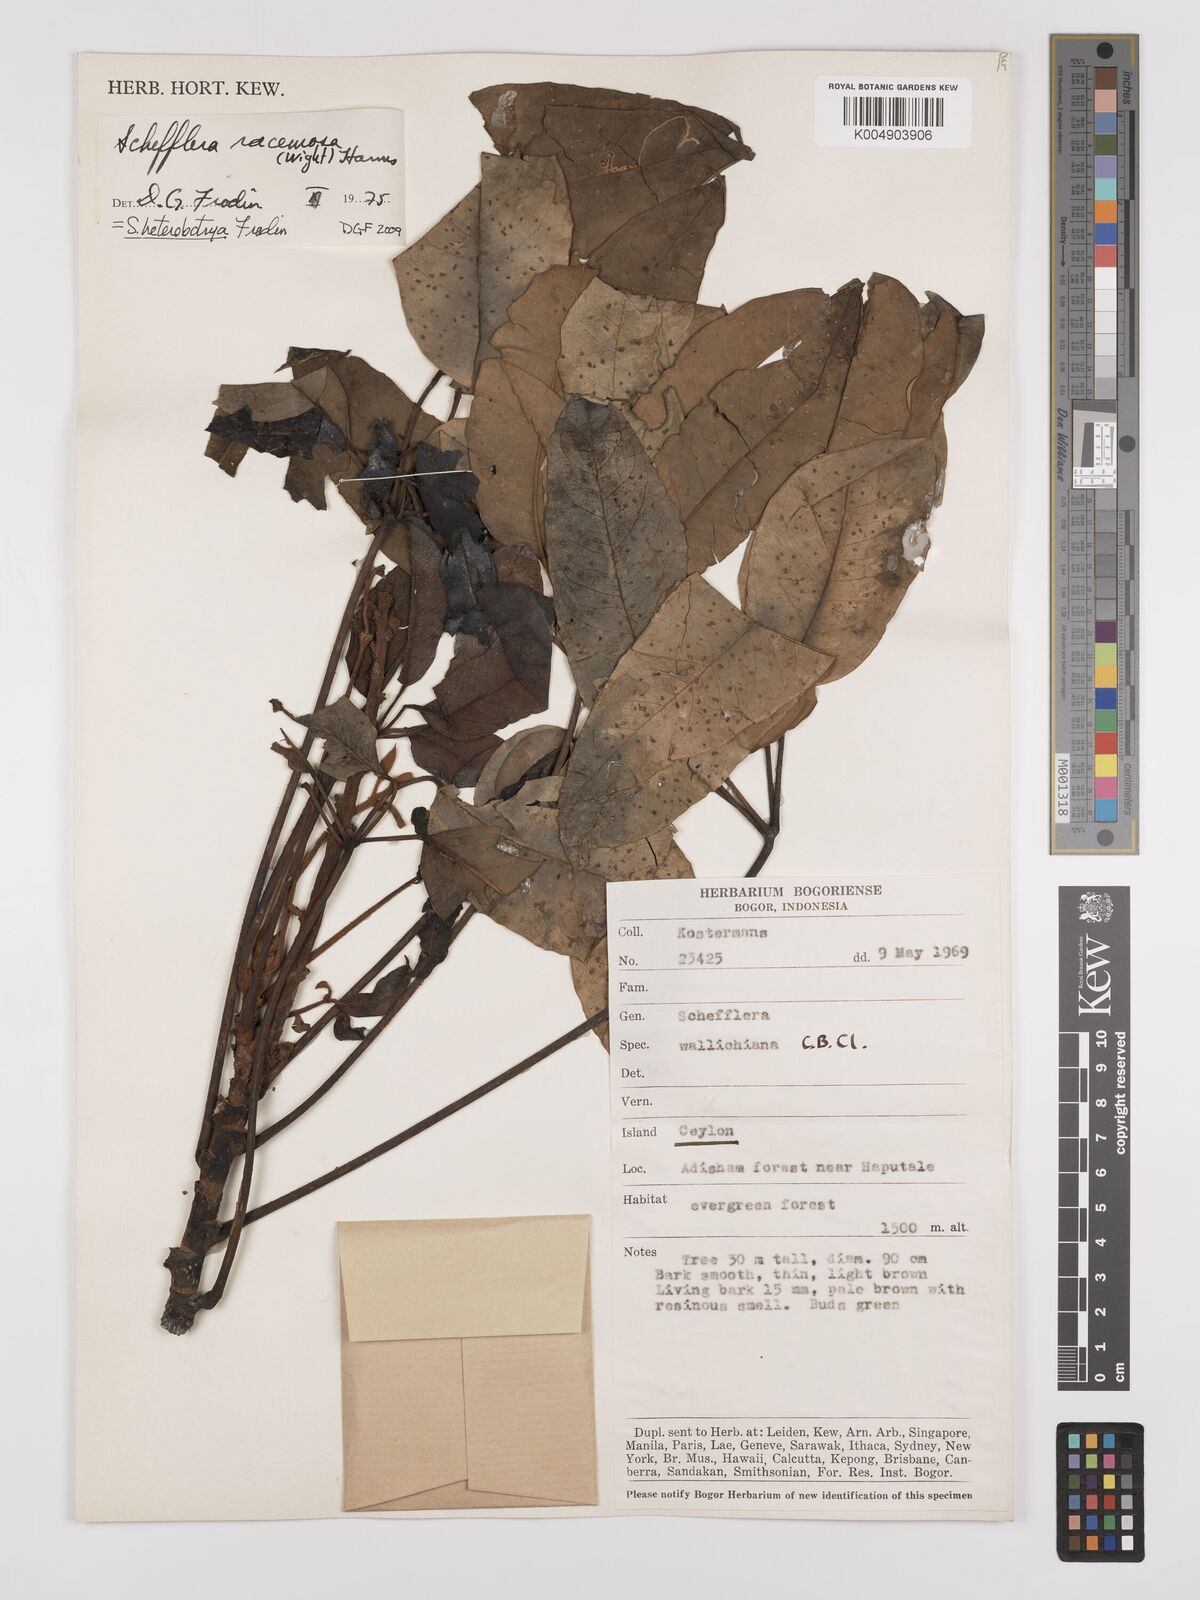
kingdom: Plantae
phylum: Tracheophyta
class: Magnoliopsida
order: Apiales
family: Araliaceae
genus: Heptapleurum
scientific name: Heptapleurum
